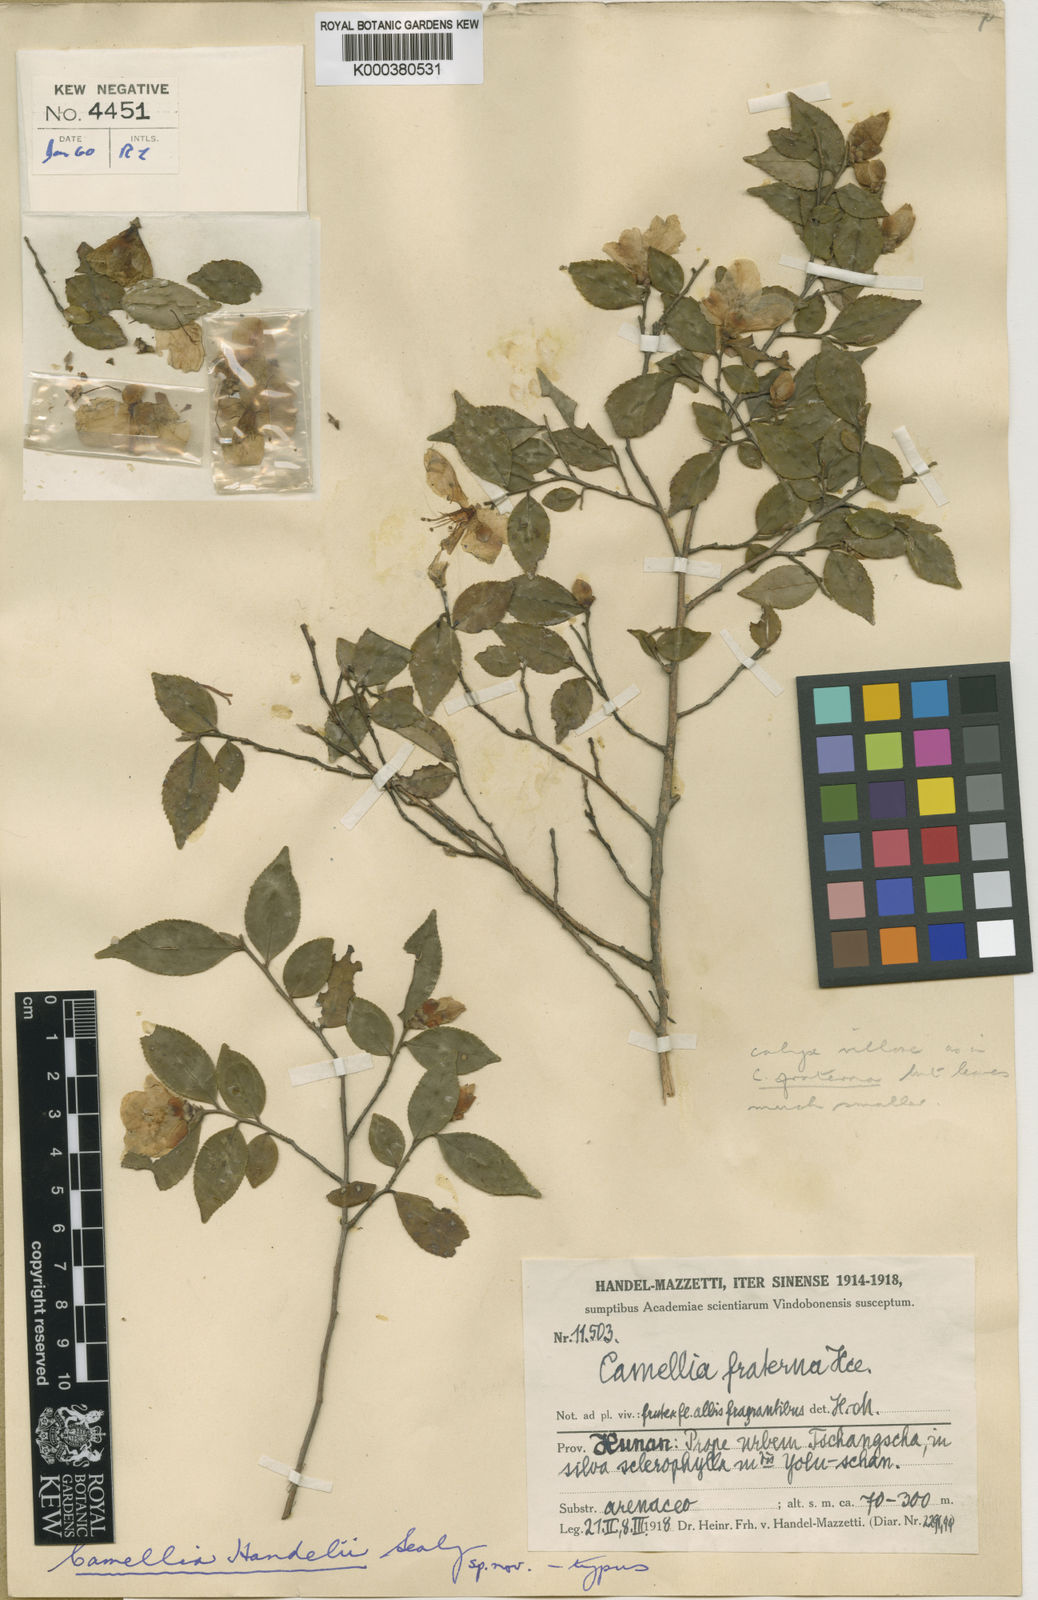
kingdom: Plantae
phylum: Tracheophyta
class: Magnoliopsida
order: Ericales
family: Theaceae
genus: Camellia
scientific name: Camellia transarisanensis
